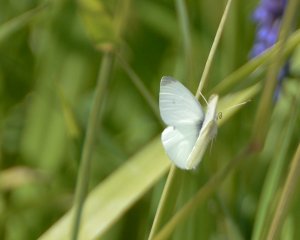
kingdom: Animalia
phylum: Arthropoda
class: Insecta
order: Lepidoptera
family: Pieridae
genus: Pieris
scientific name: Pieris rapae
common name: Cabbage White
